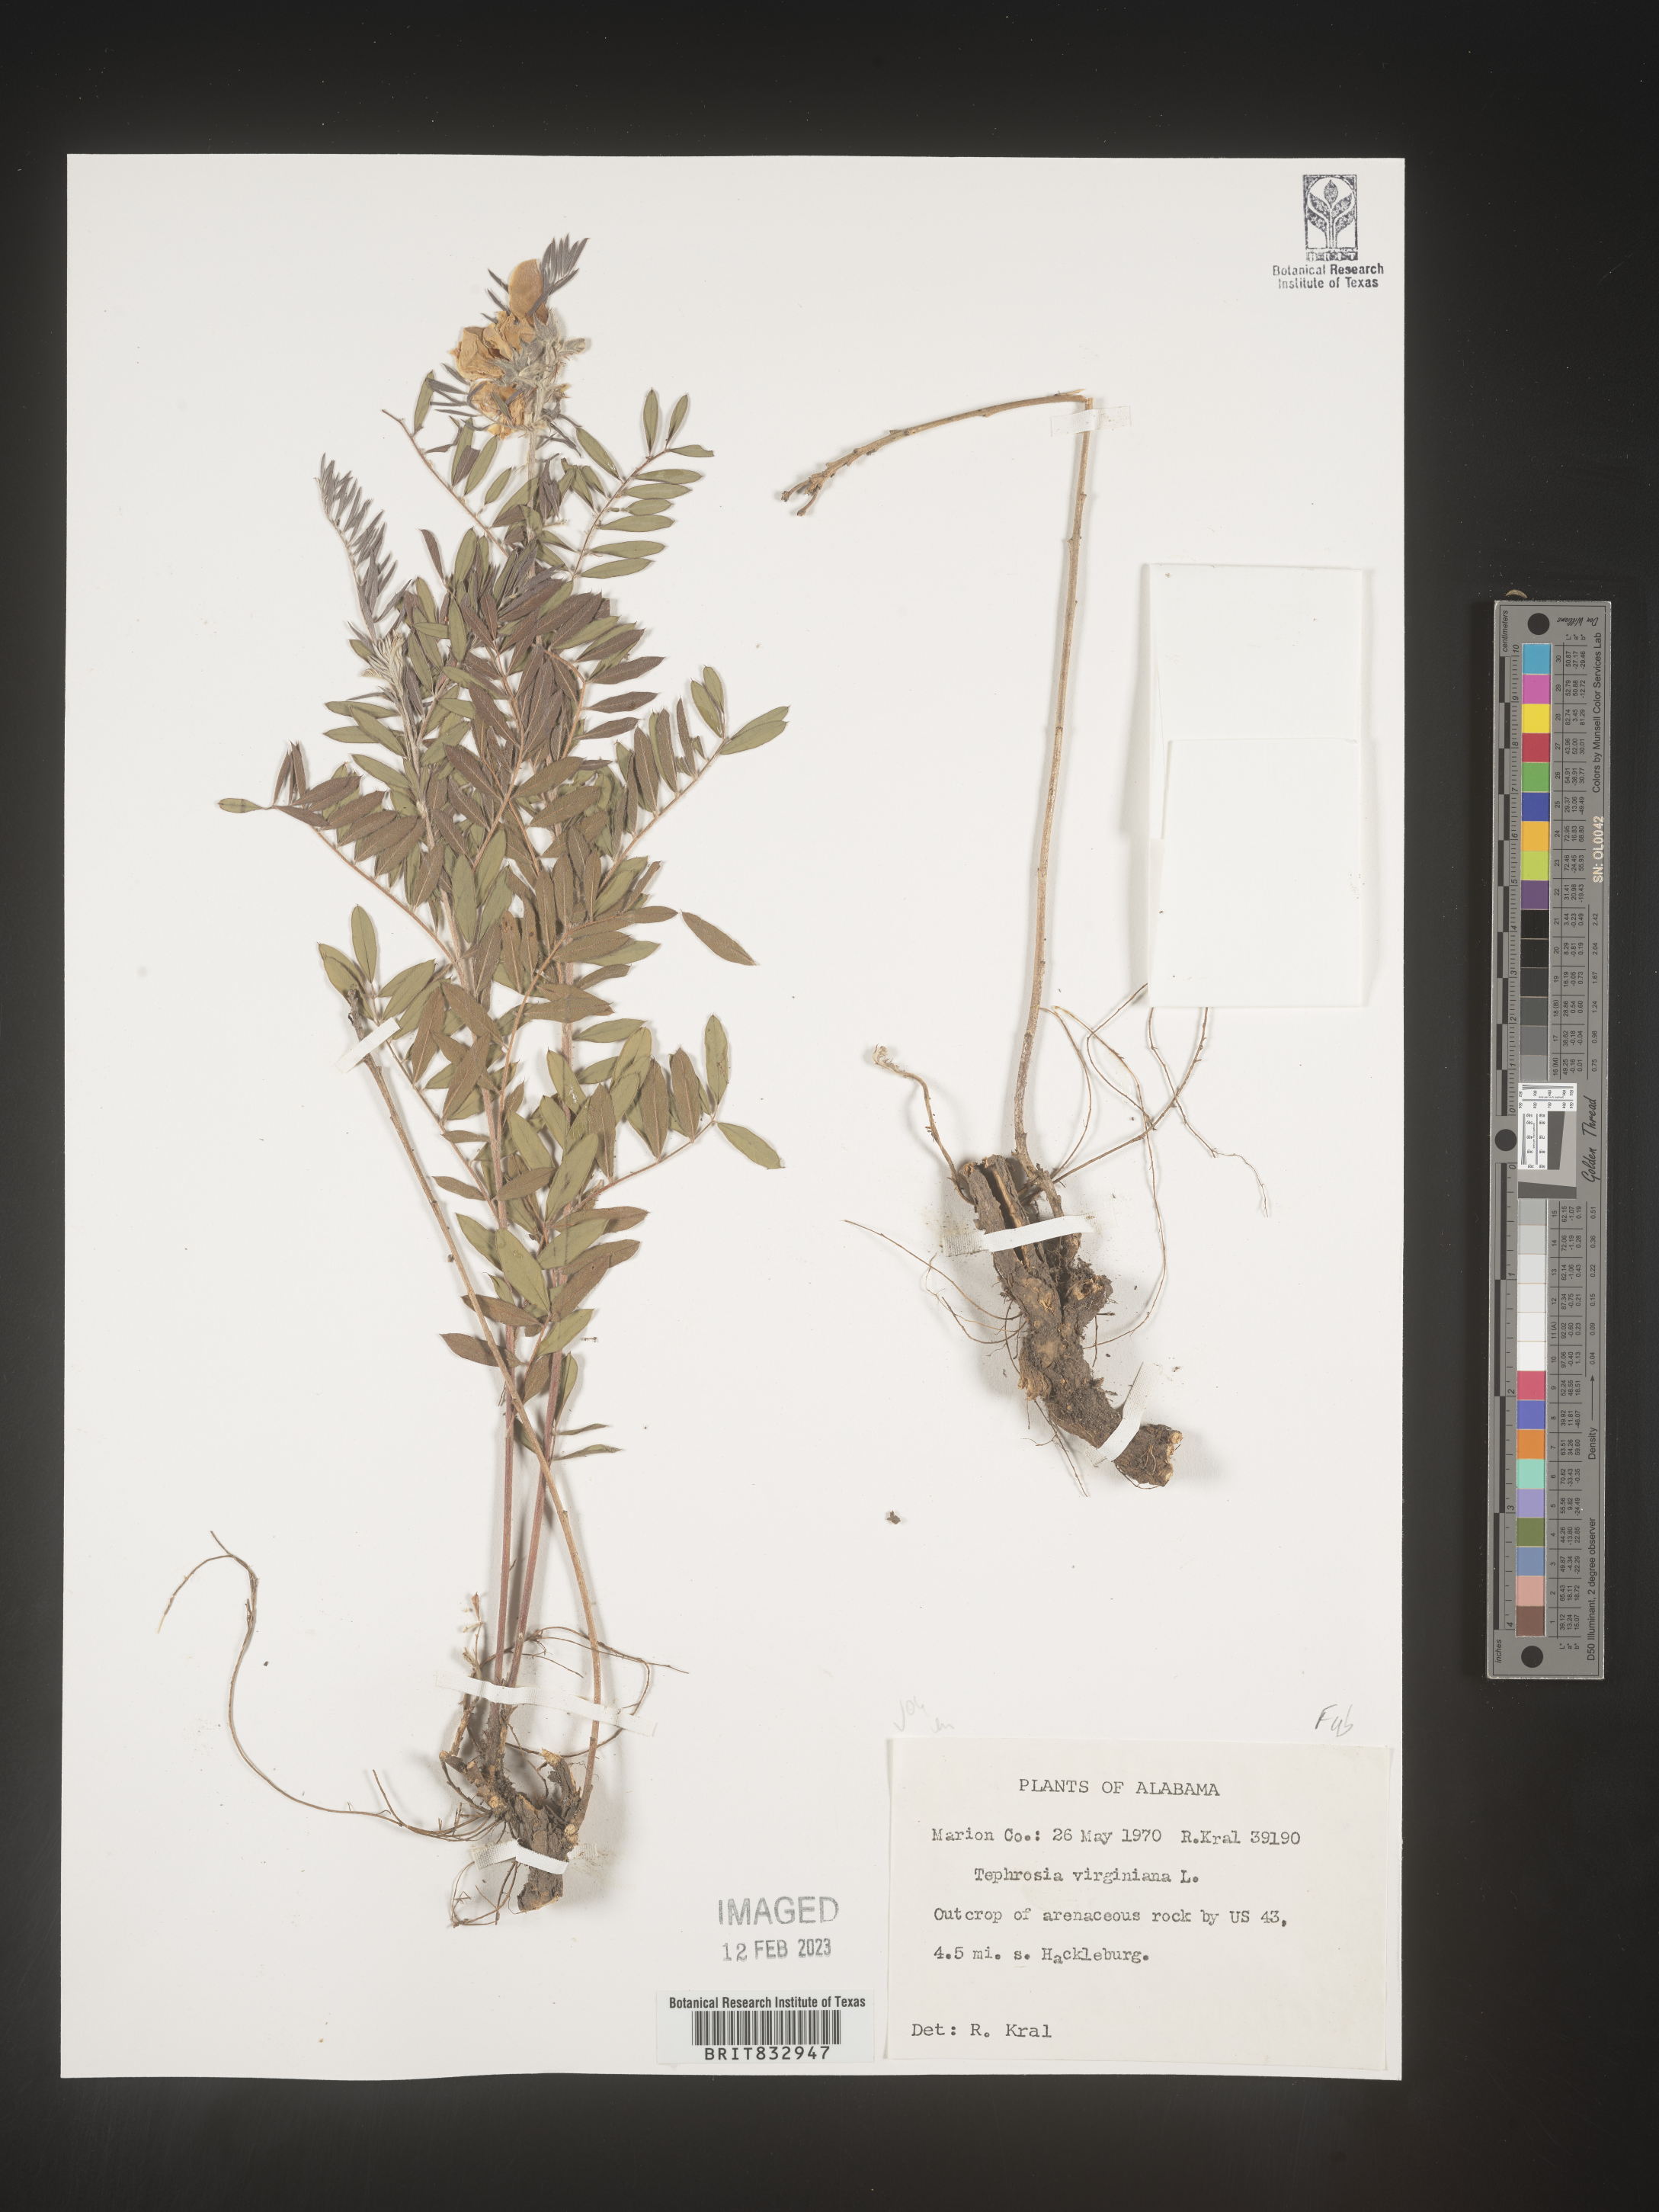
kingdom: Plantae
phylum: Tracheophyta
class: Magnoliopsida
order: Fabales
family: Fabaceae
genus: Tephrosia
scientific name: Tephrosia virginiana
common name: Rabbit-pea
